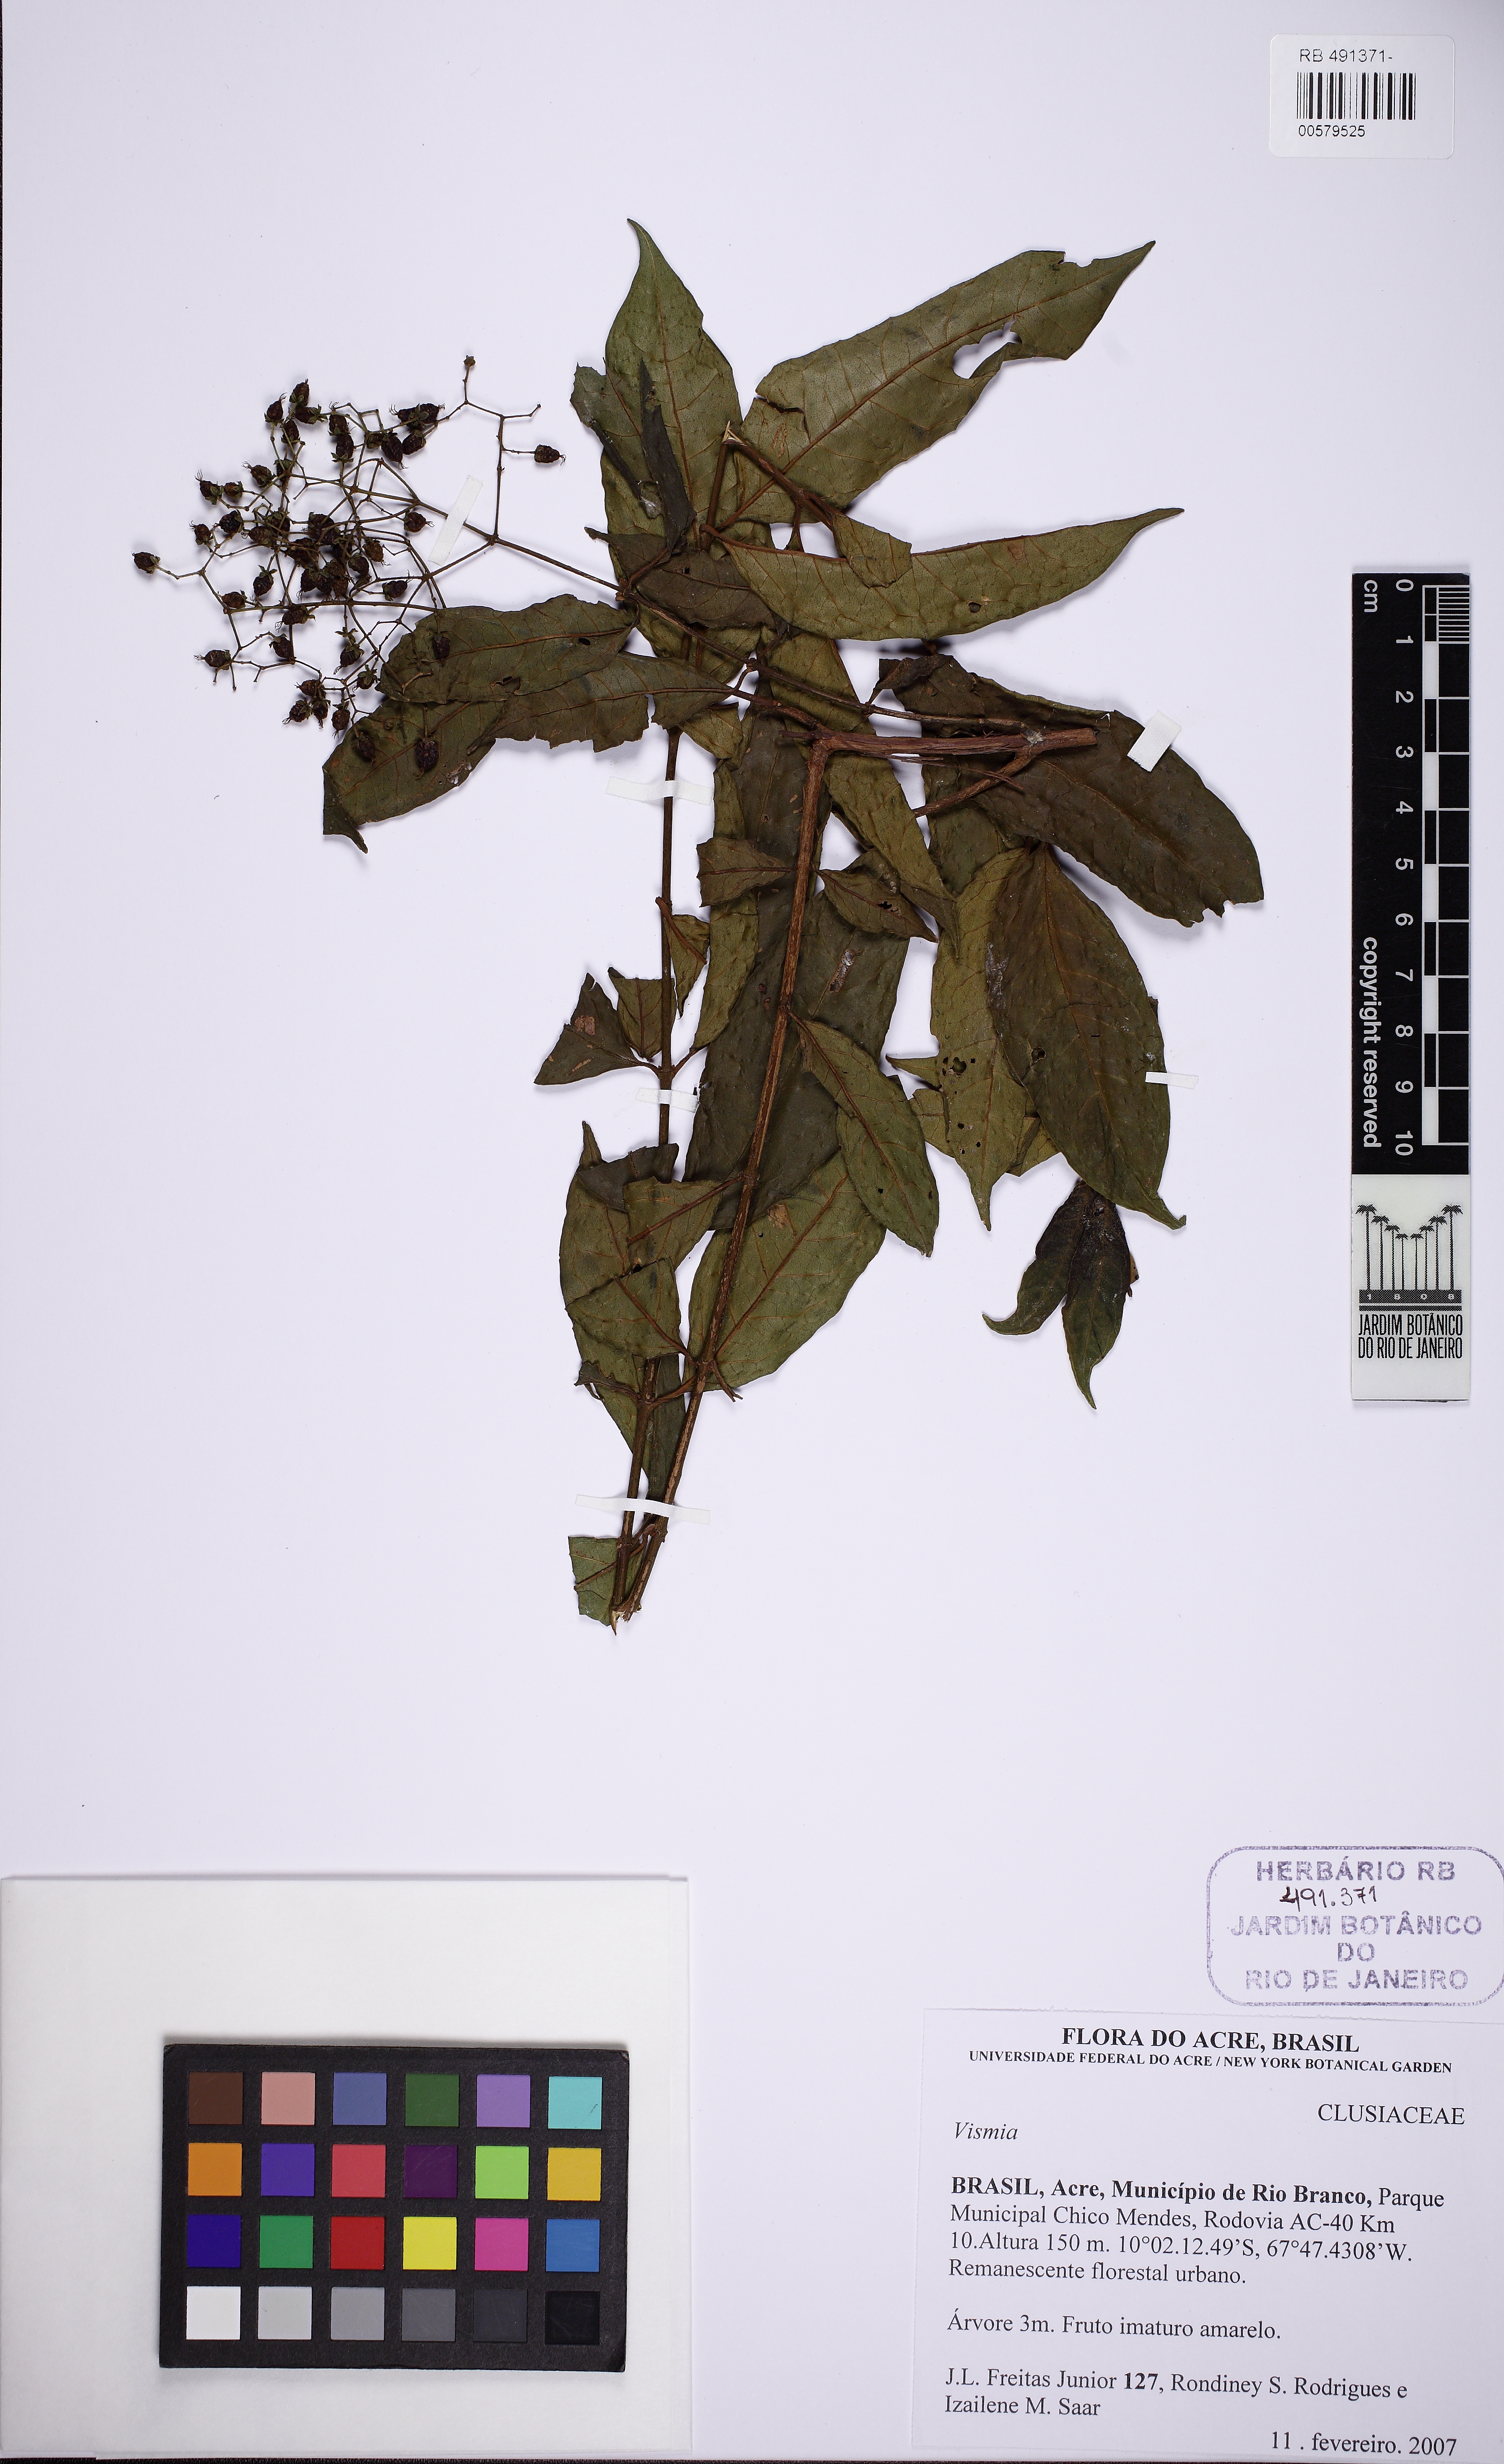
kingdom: Plantae
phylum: Tracheophyta
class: Magnoliopsida
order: Malpighiales
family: Hypericaceae
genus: Vismia
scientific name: Vismia
